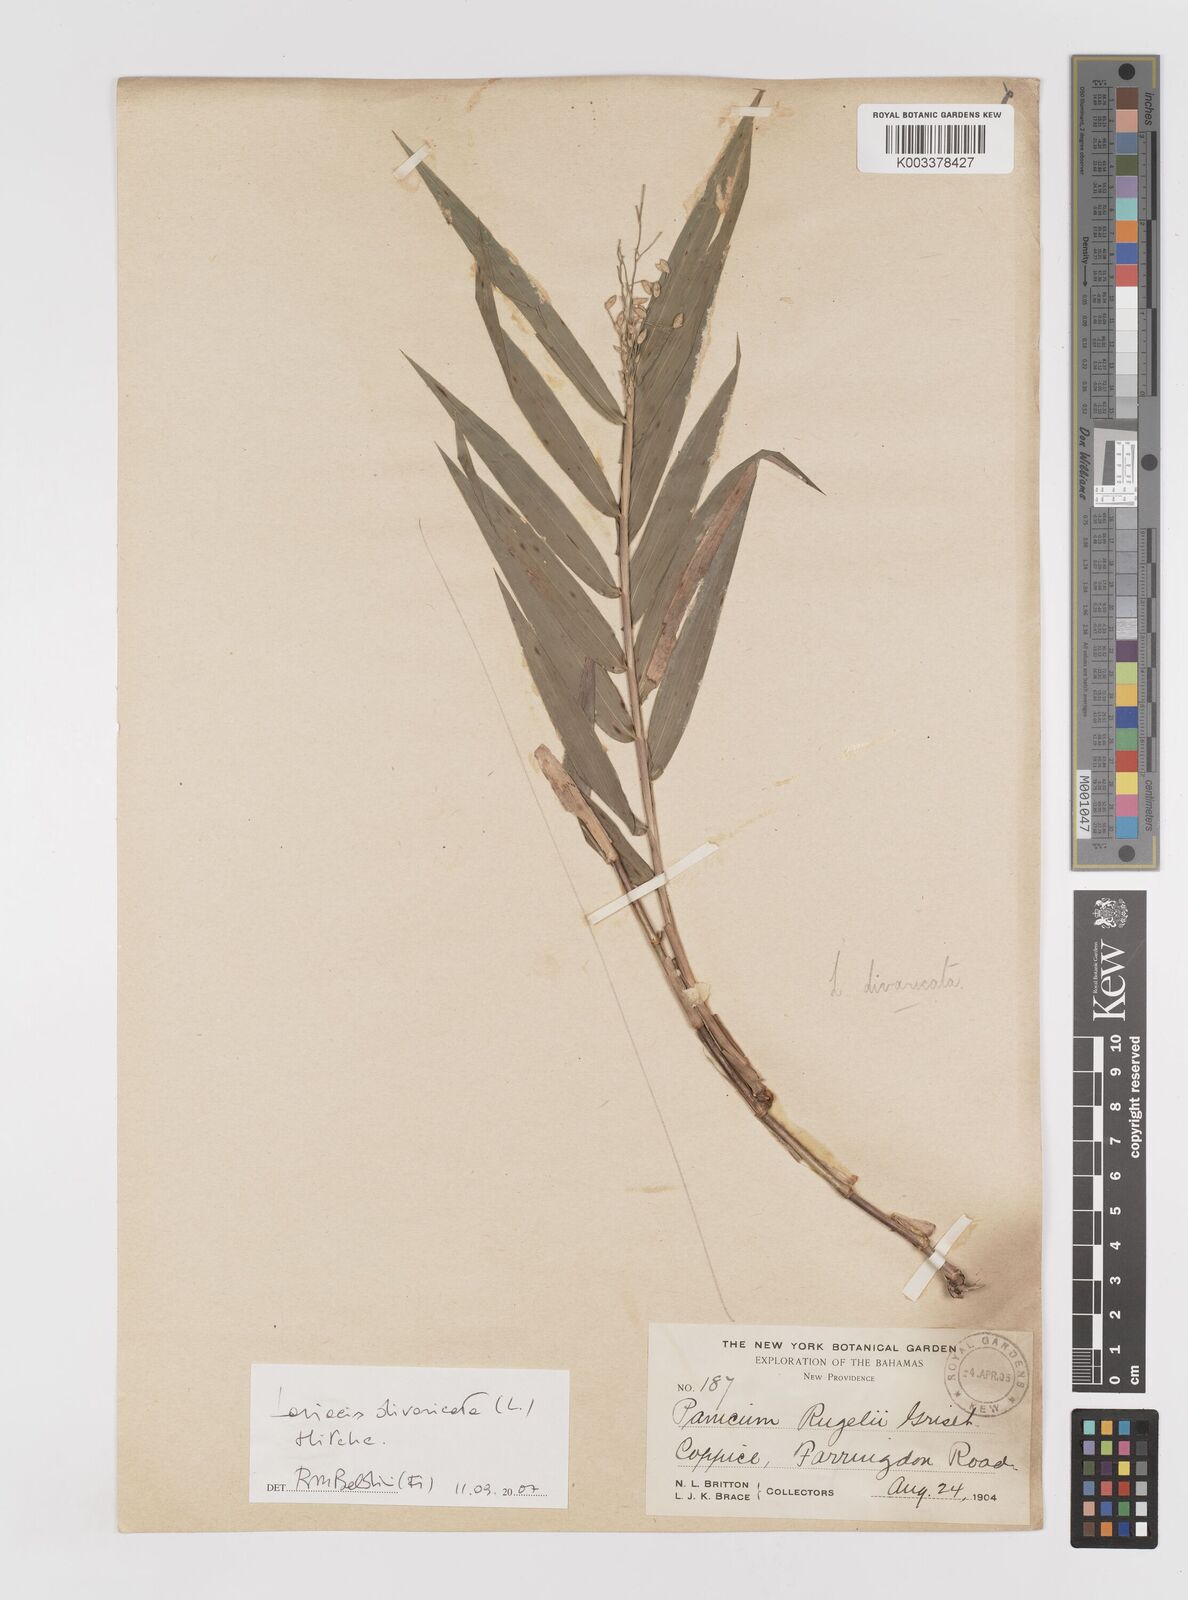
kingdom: Plantae
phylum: Tracheophyta
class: Liliopsida
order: Poales
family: Poaceae
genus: Lasiacis
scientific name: Lasiacis divaricata
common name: Smallcane
